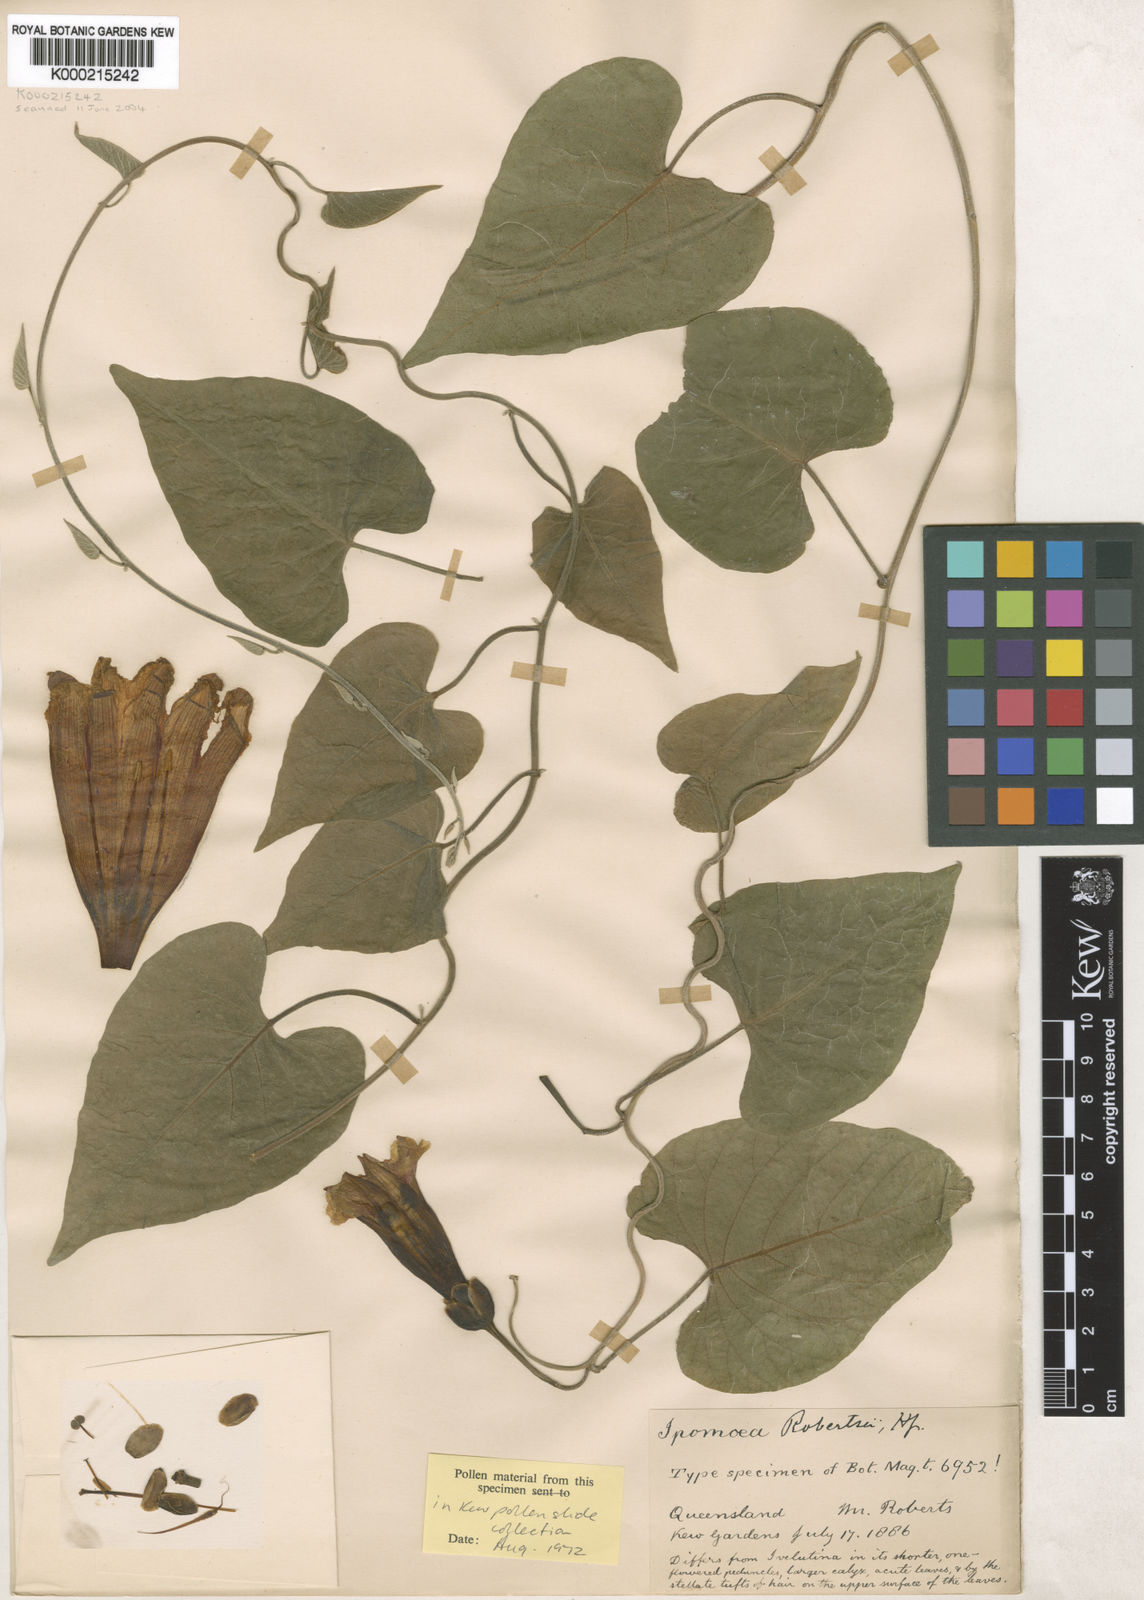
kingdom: Plantae
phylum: Tracheophyta
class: Magnoliopsida
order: Solanales
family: Convolvulaceae
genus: Ipomoea
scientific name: Ipomoea jalapa
